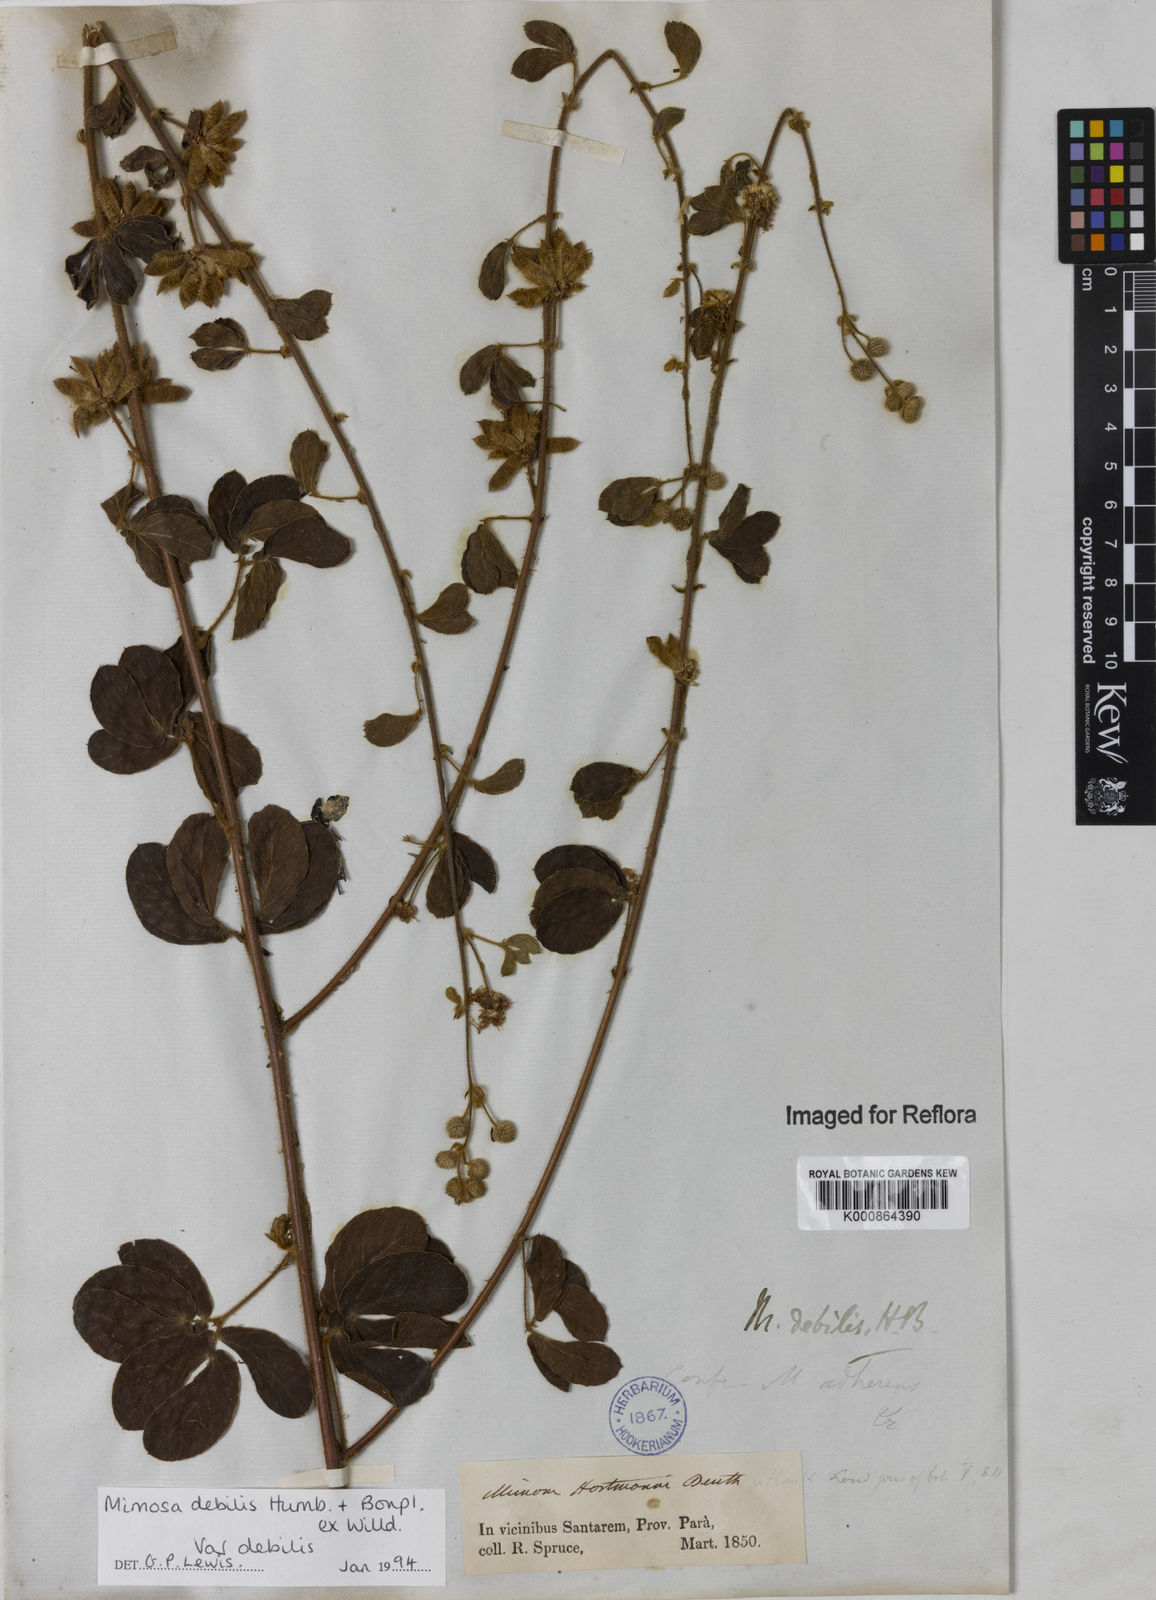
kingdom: Plantae
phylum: Tracheophyta
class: Magnoliopsida
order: Fabales
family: Fabaceae
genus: Mimosa
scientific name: Mimosa debilis
